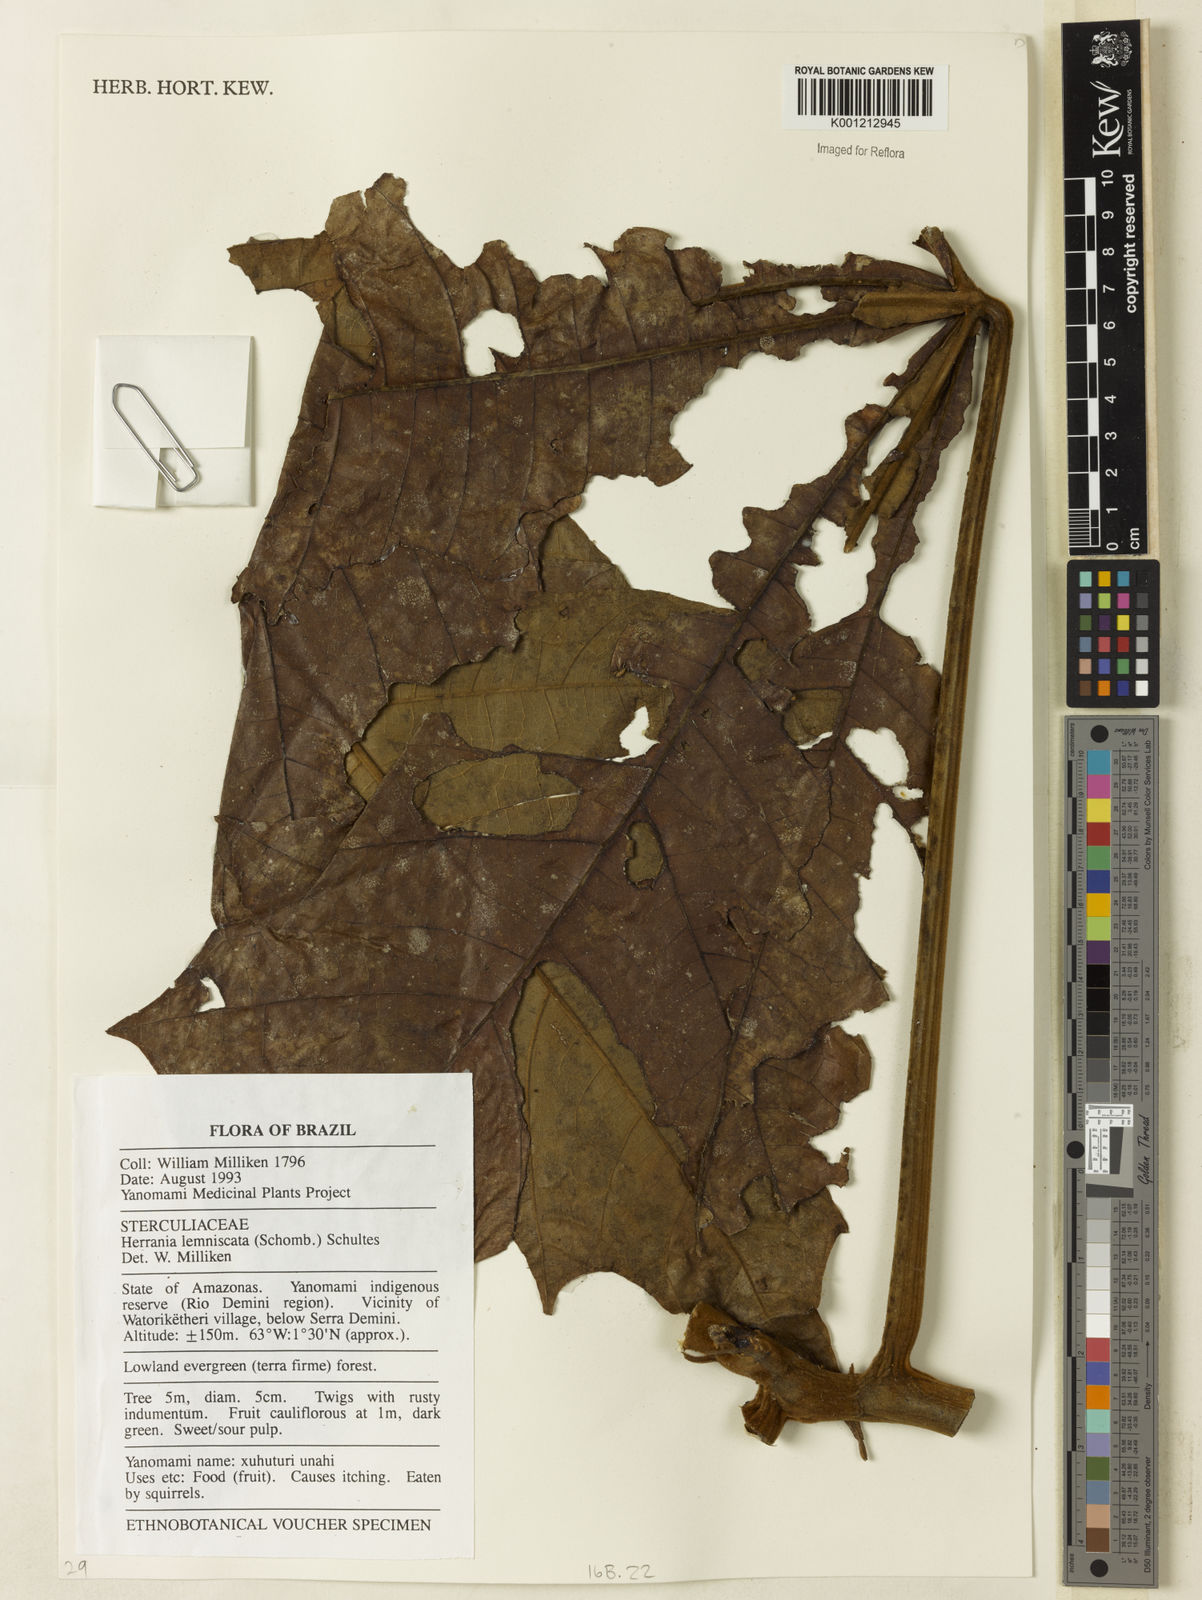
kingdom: Plantae
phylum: Tracheophyta
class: Magnoliopsida
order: Malvales
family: Malvaceae
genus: Herrania
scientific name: Herrania mariae
